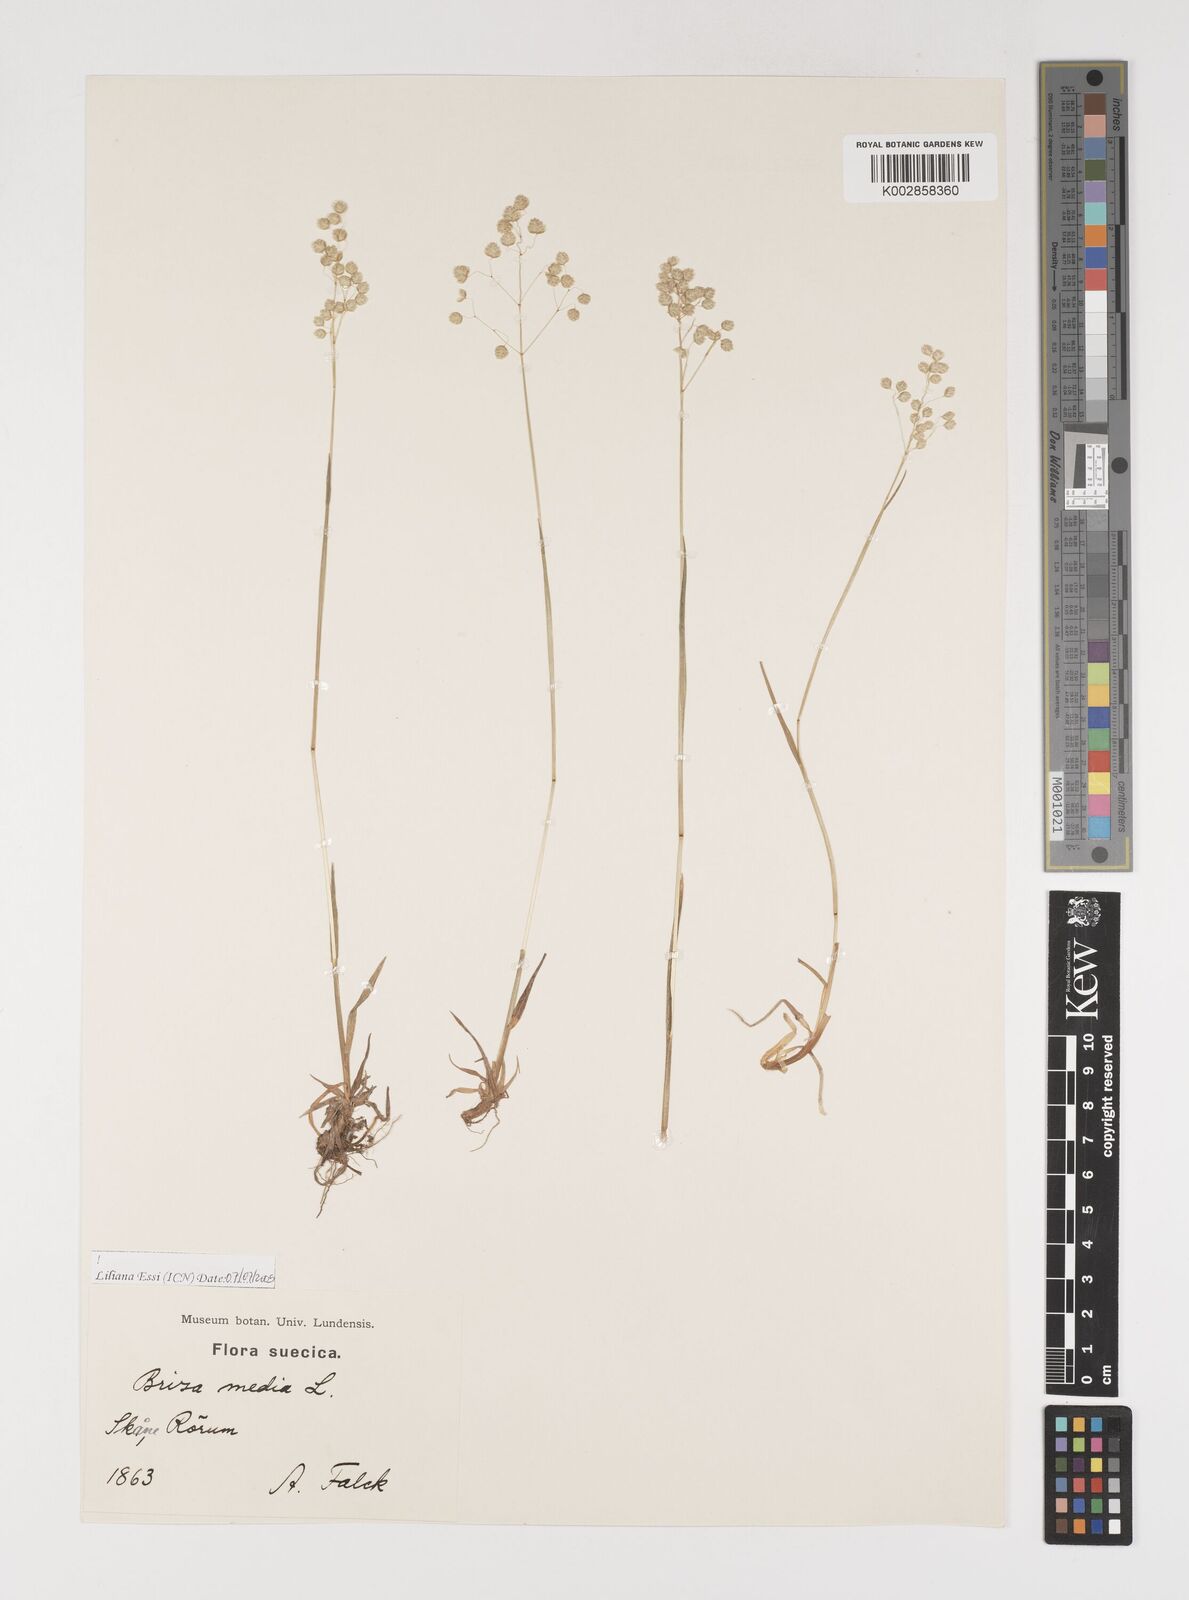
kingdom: Plantae
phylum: Tracheophyta
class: Liliopsida
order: Poales
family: Poaceae
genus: Briza
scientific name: Briza media
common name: Quaking grass
